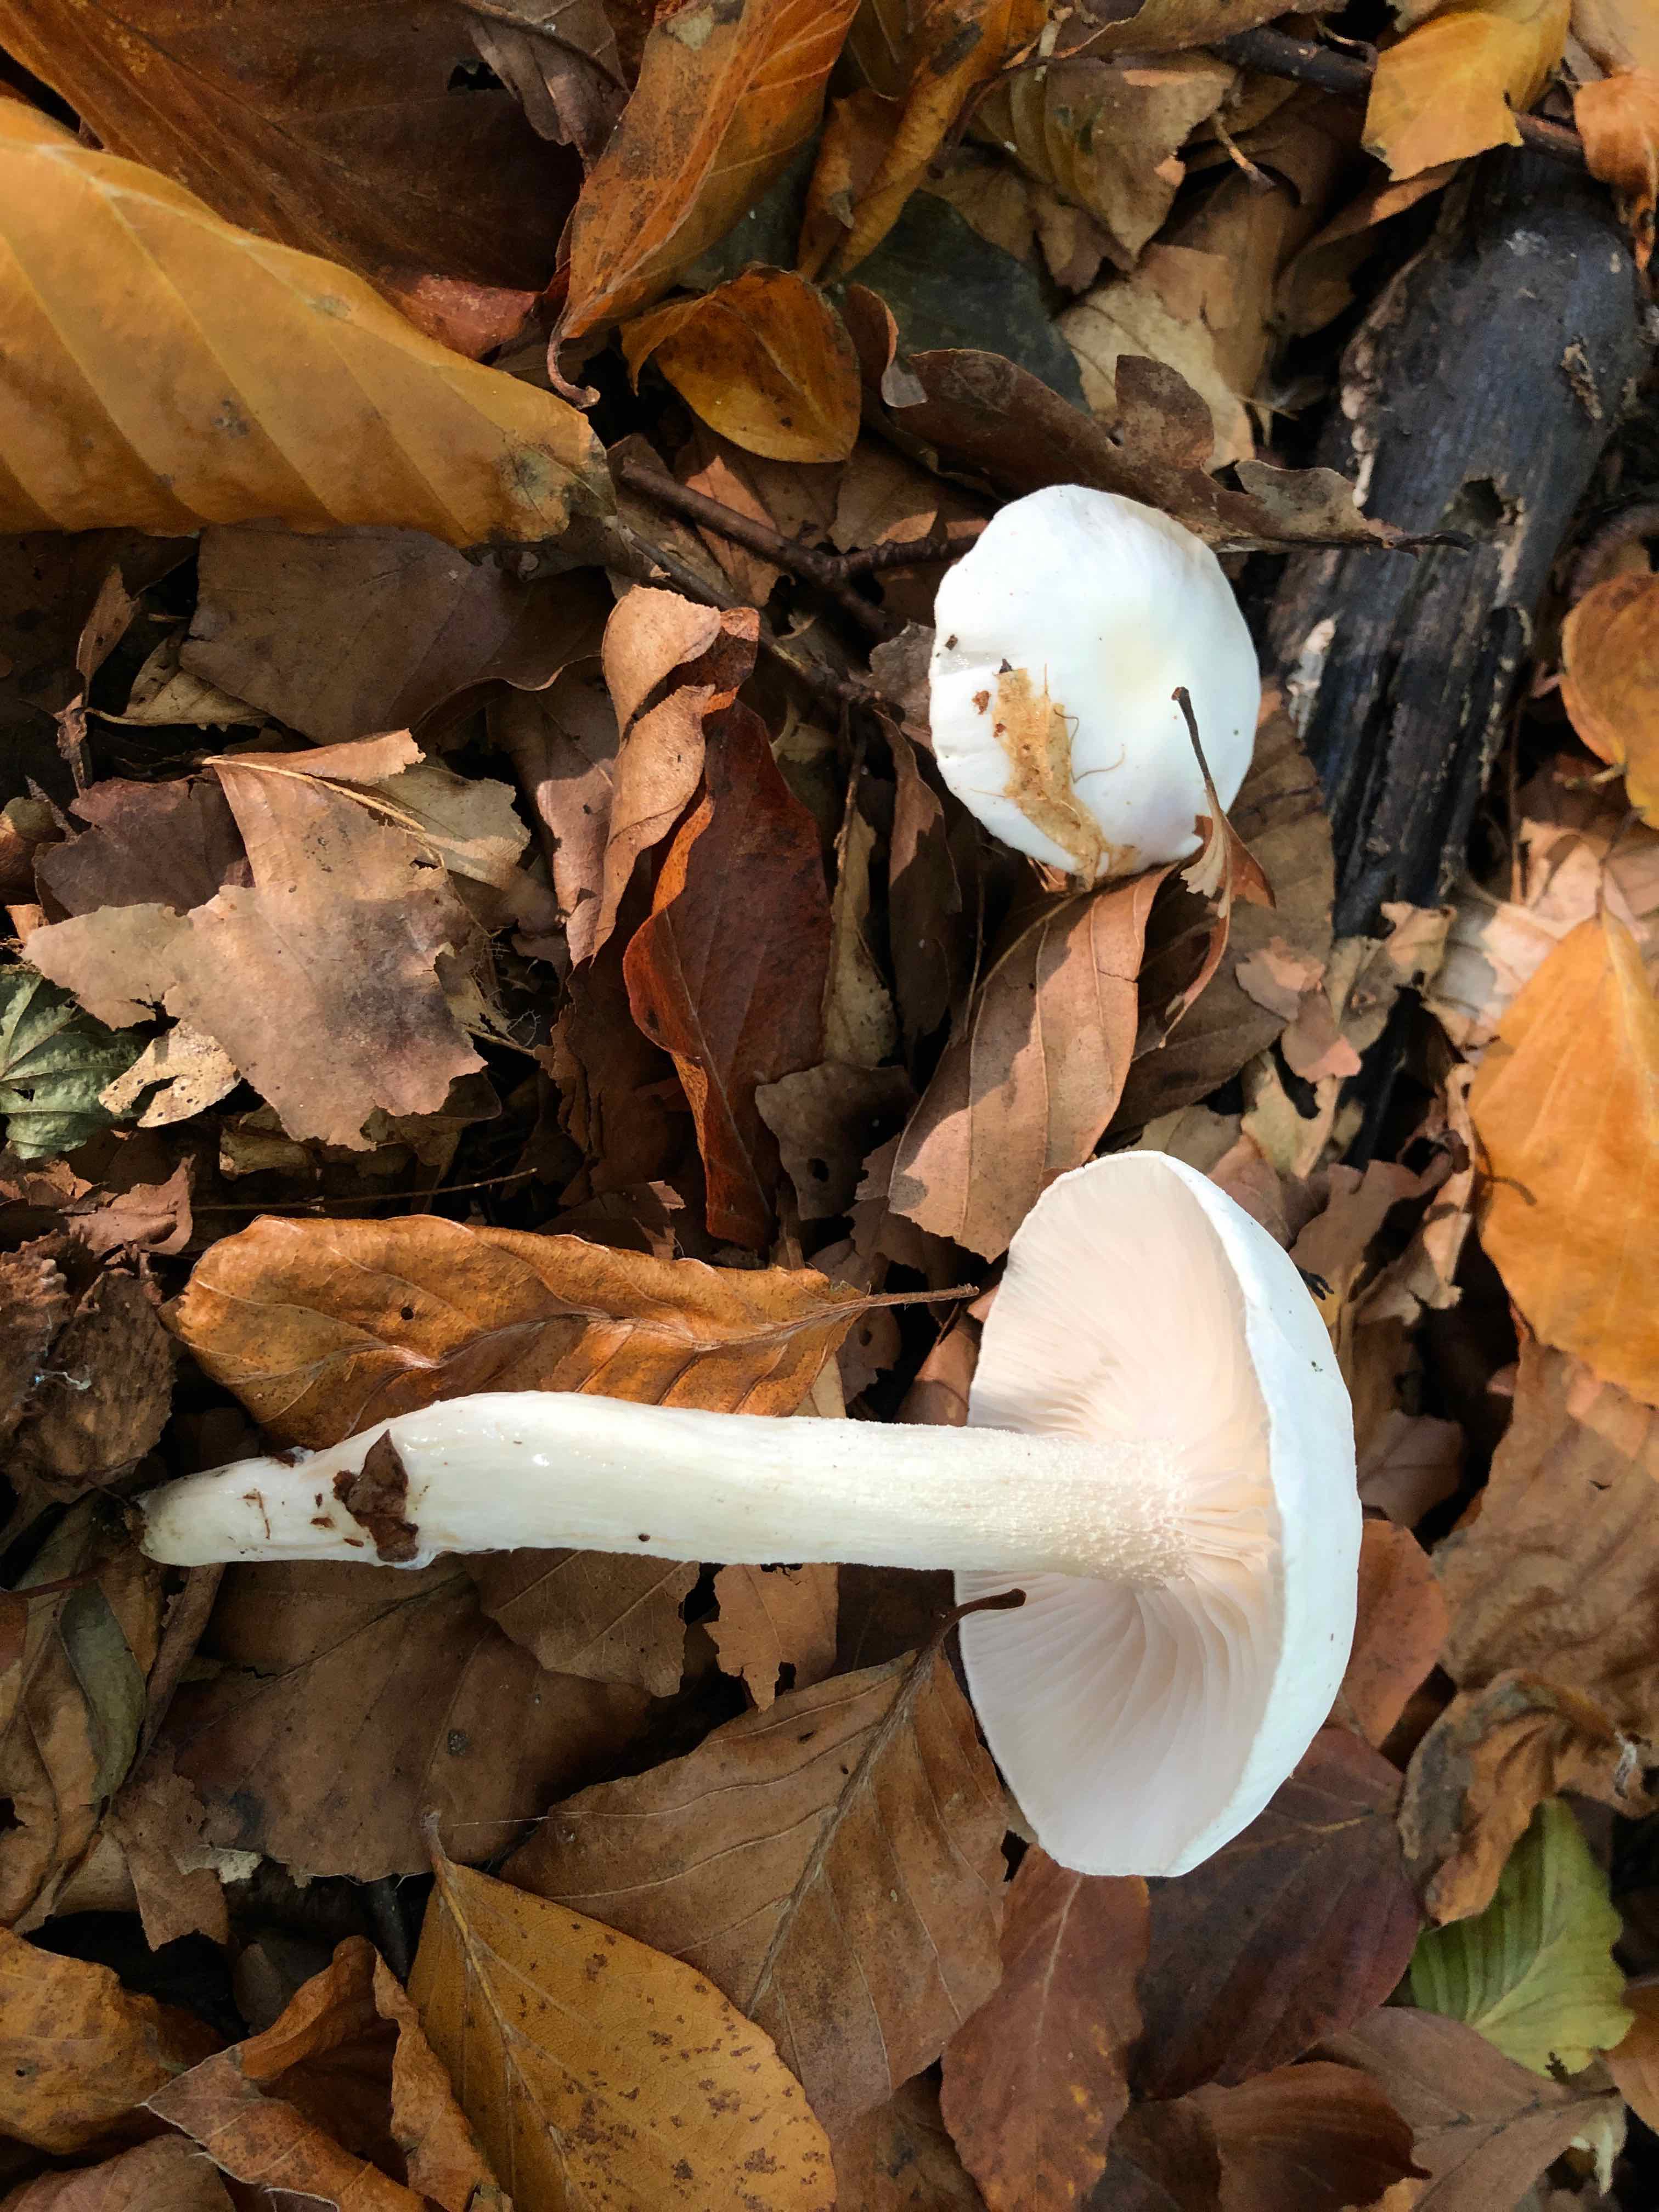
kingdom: Fungi
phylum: Basidiomycota
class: Agaricomycetes
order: Agaricales
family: Hygrophoraceae
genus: Hygrophorus
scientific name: Hygrophorus eburneus
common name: elfenbens-sneglehat
